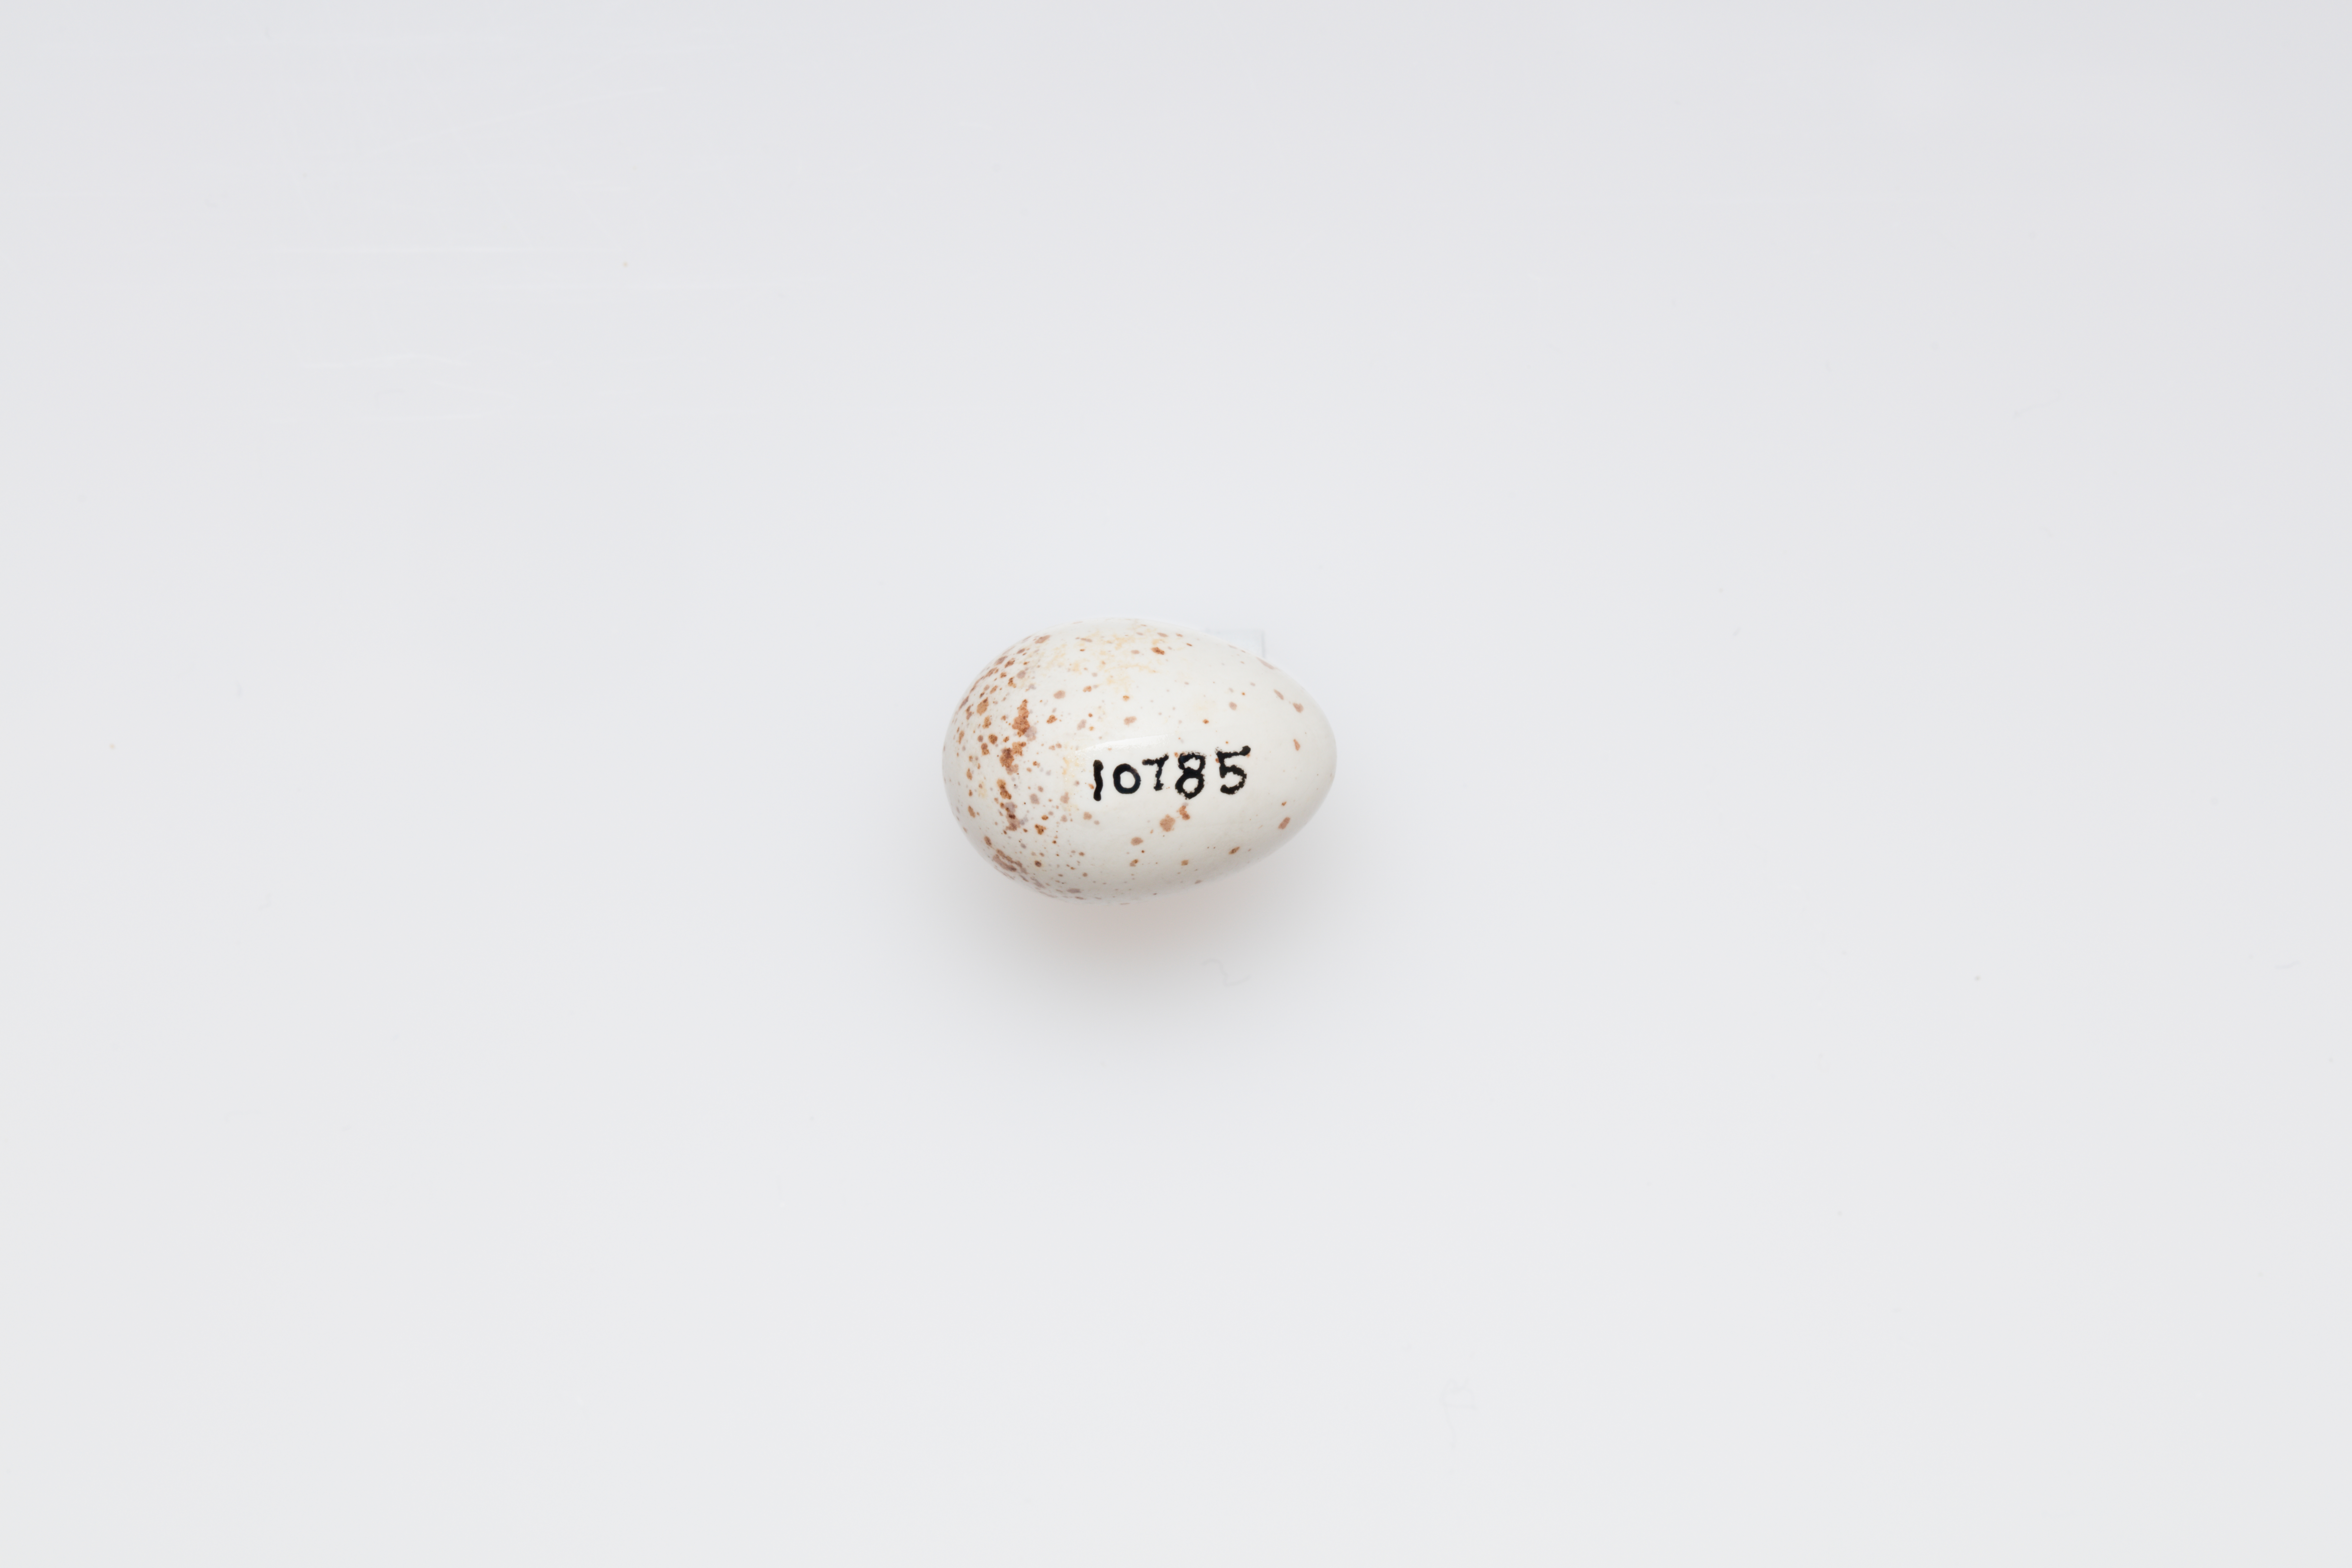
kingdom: Animalia
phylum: Chordata
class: Aves
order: Passeriformes
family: Troglodytidae
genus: Troglodytes
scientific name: Troglodytes troglodytes
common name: Eurasian wren
